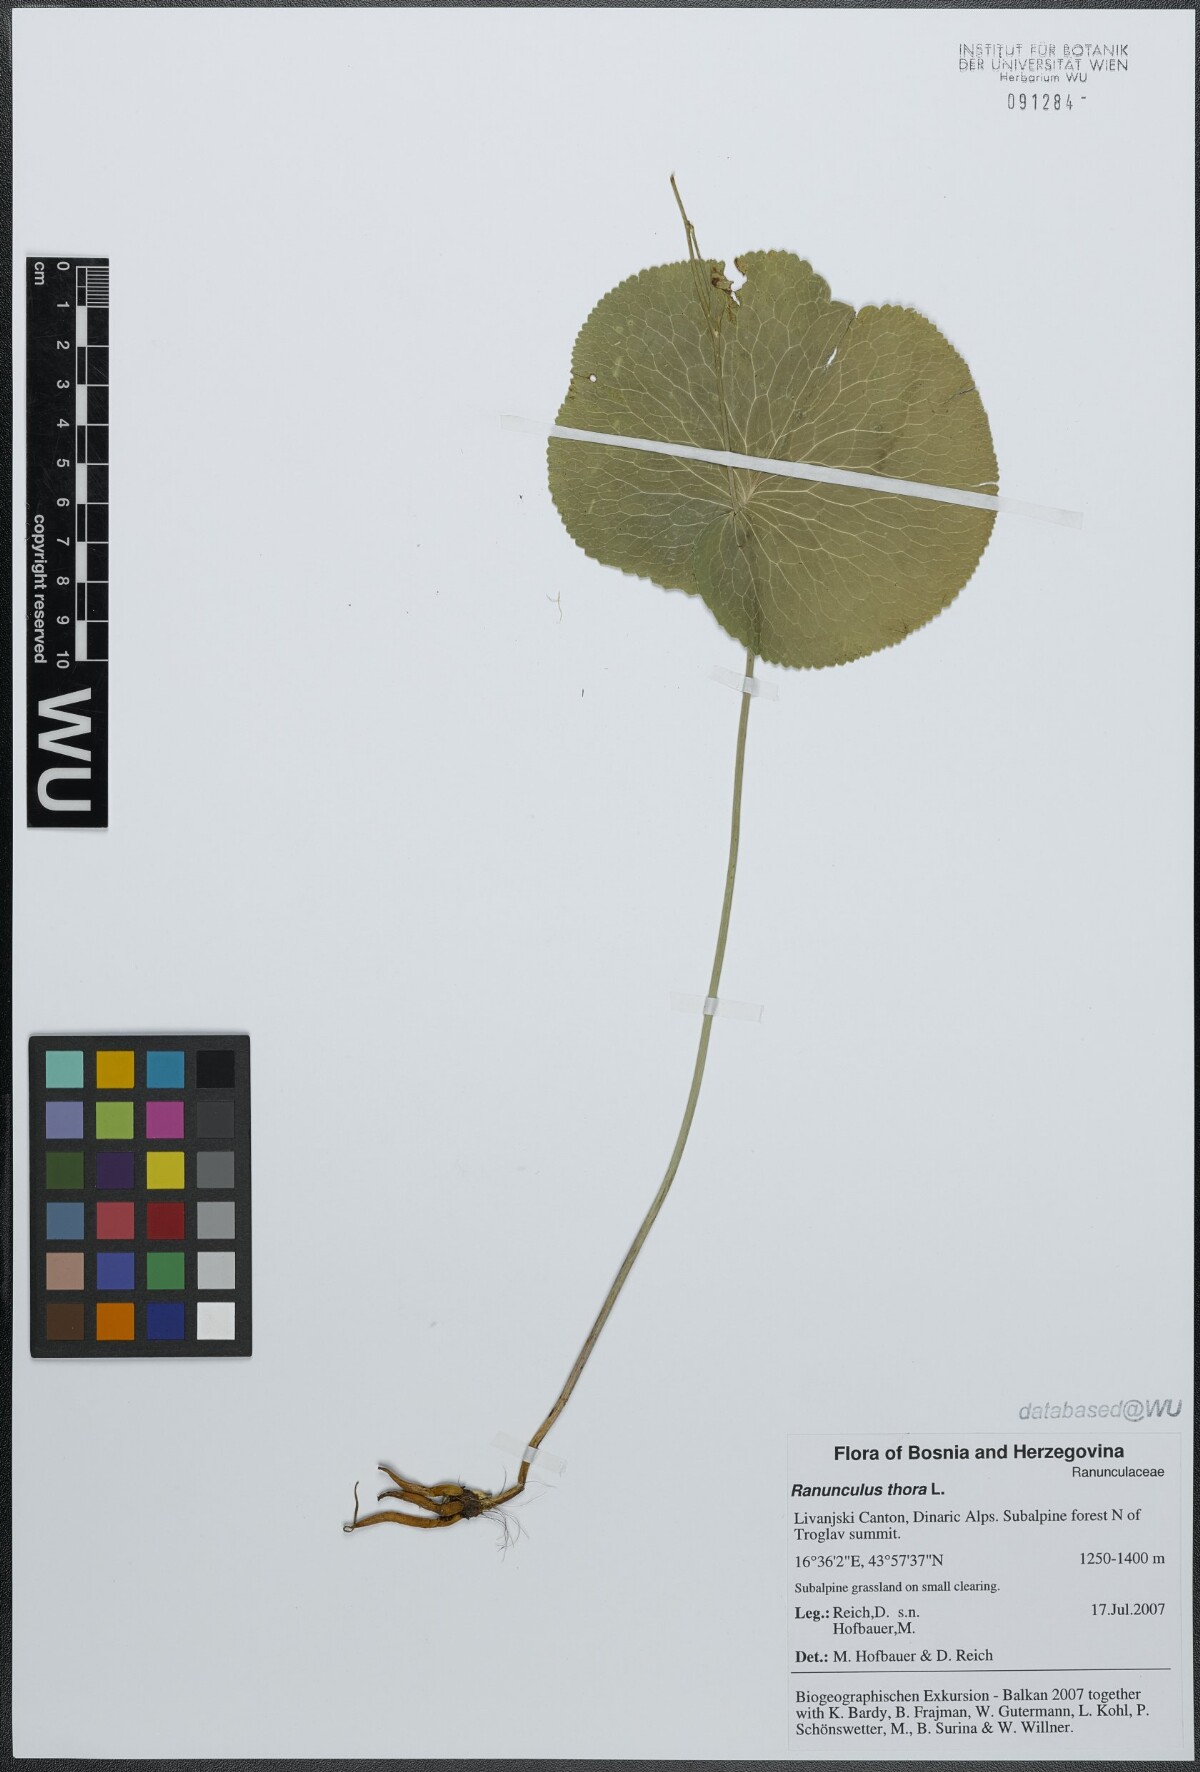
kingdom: Plantae
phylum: Tracheophyta
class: Magnoliopsida
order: Ranunculales
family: Ranunculaceae
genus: Ranunculus
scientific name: Ranunculus thora
